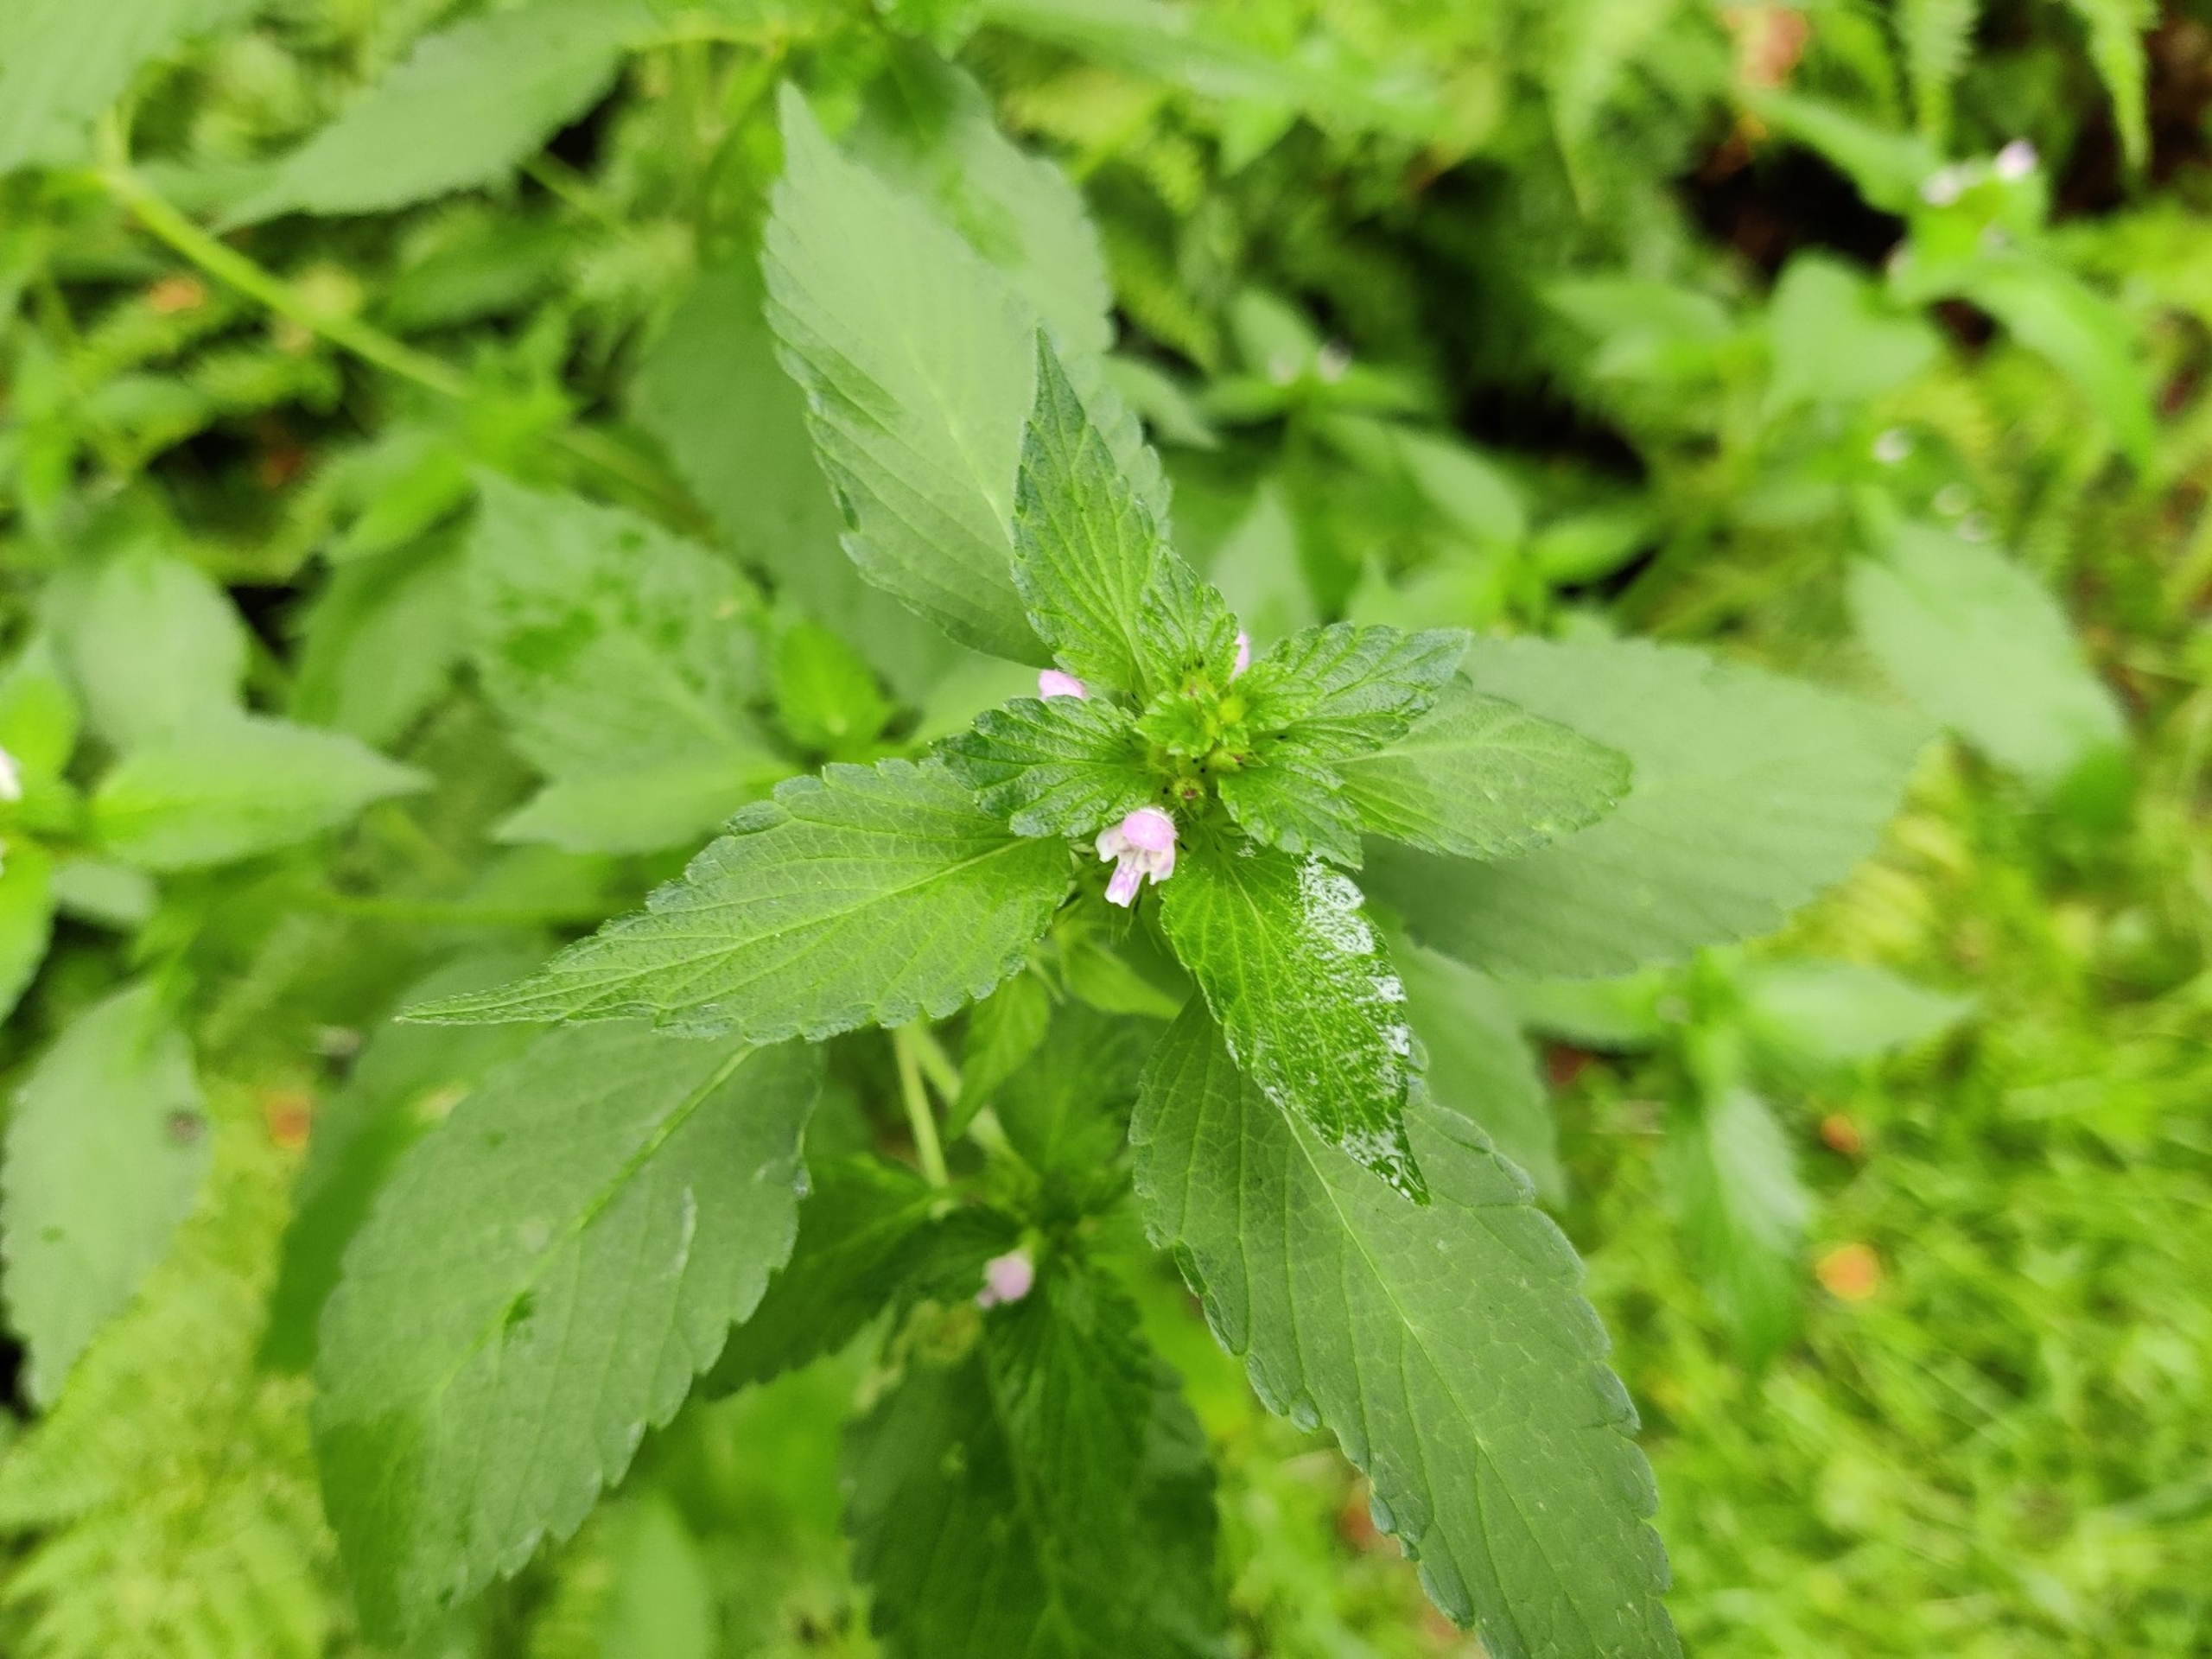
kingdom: Plantae
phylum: Tracheophyta
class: Magnoliopsida
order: Lamiales
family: Lamiaceae
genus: Galeopsis
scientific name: Galeopsis bifida
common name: Skov-hanekro
